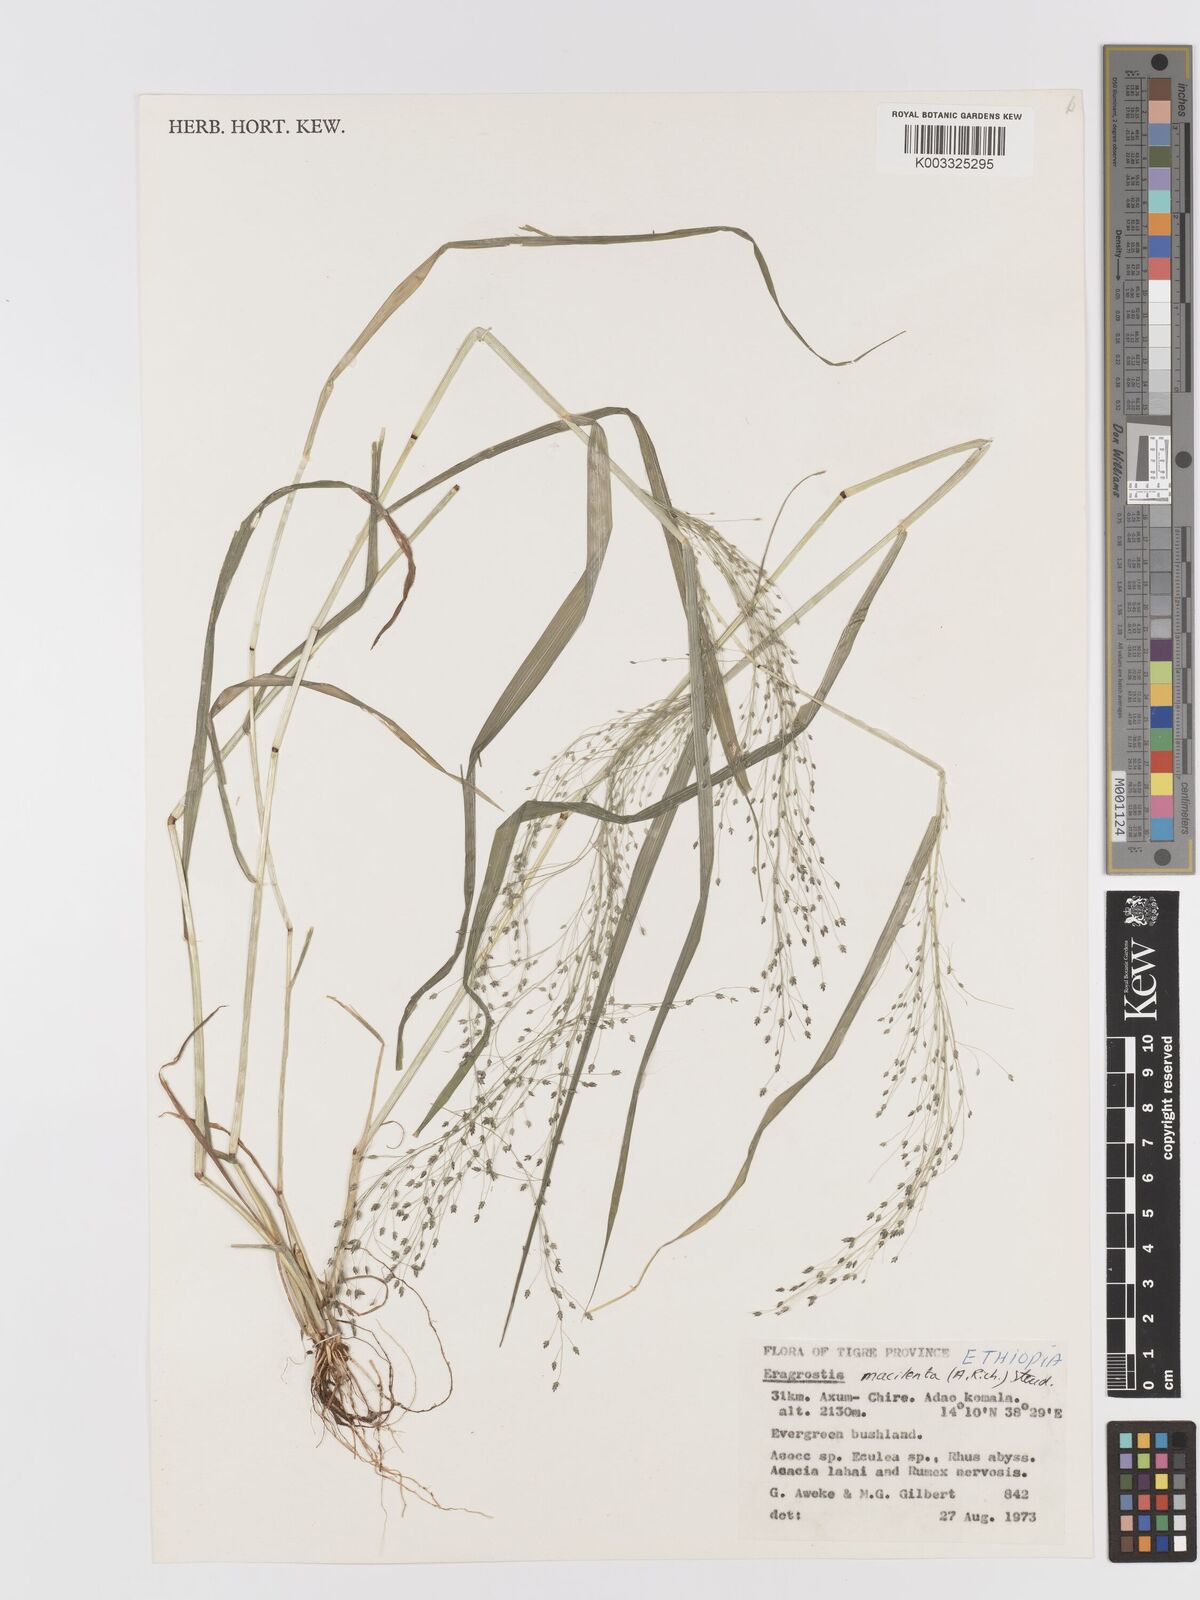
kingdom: Plantae
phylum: Tracheophyta
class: Liliopsida
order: Poales
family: Poaceae
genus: Eragrostis
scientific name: Eragrostis macilenta
